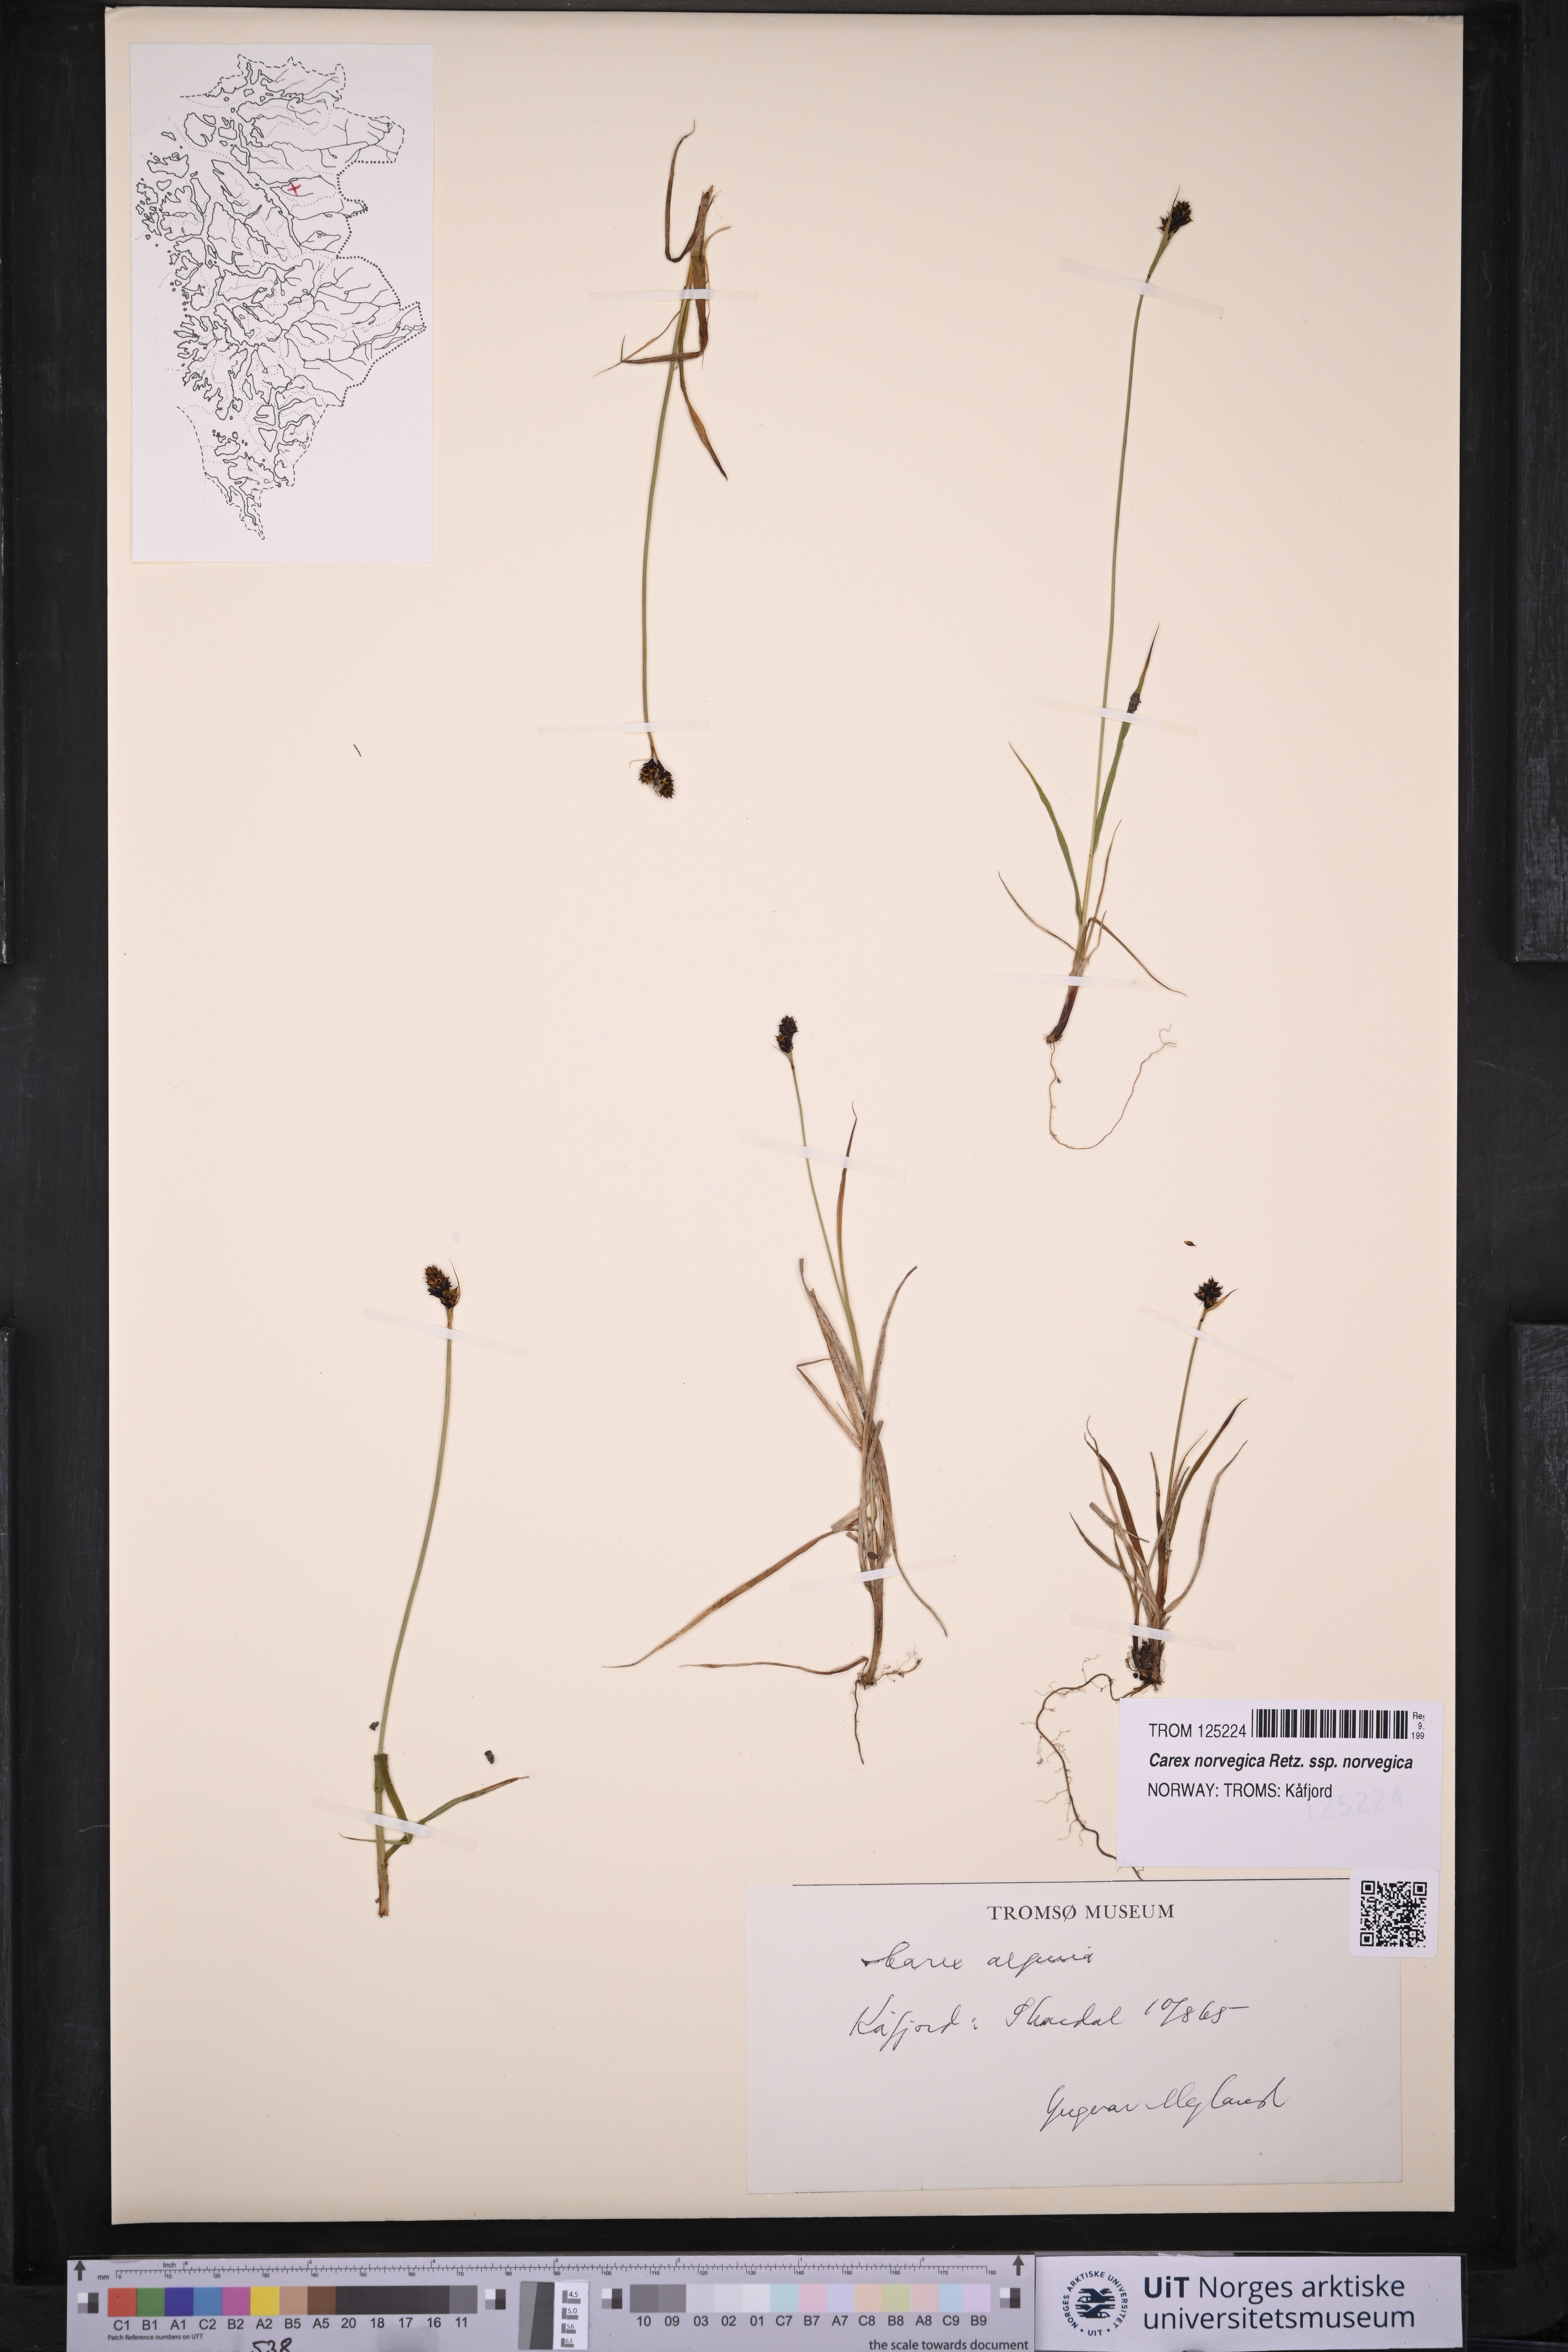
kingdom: Plantae
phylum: Tracheophyta
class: Liliopsida
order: Poales
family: Cyperaceae
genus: Carex
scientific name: Carex norvegica
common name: Close-headed alpine-sedge
